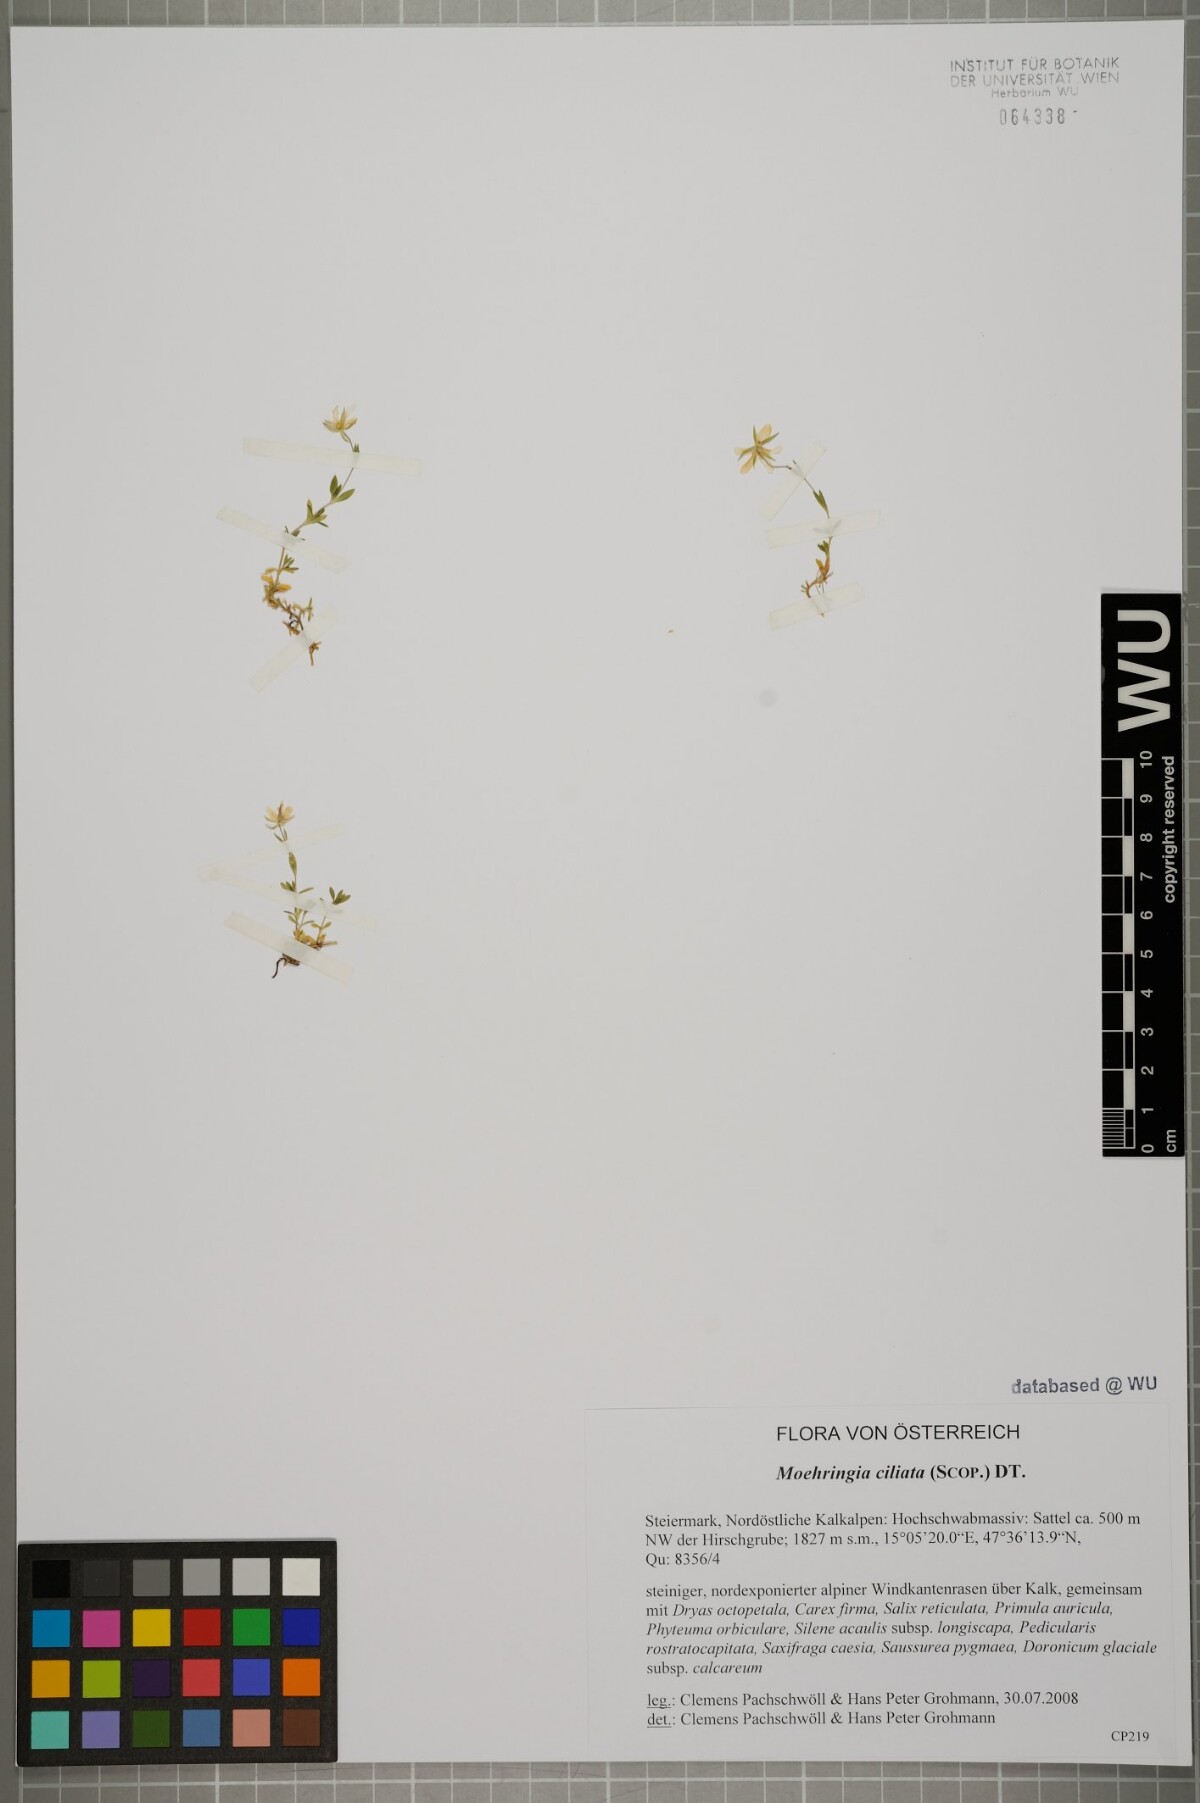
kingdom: Plantae
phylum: Tracheophyta
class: Magnoliopsida
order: Caryophyllales
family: Caryophyllaceae
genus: Moehringia
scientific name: Moehringia ciliata
